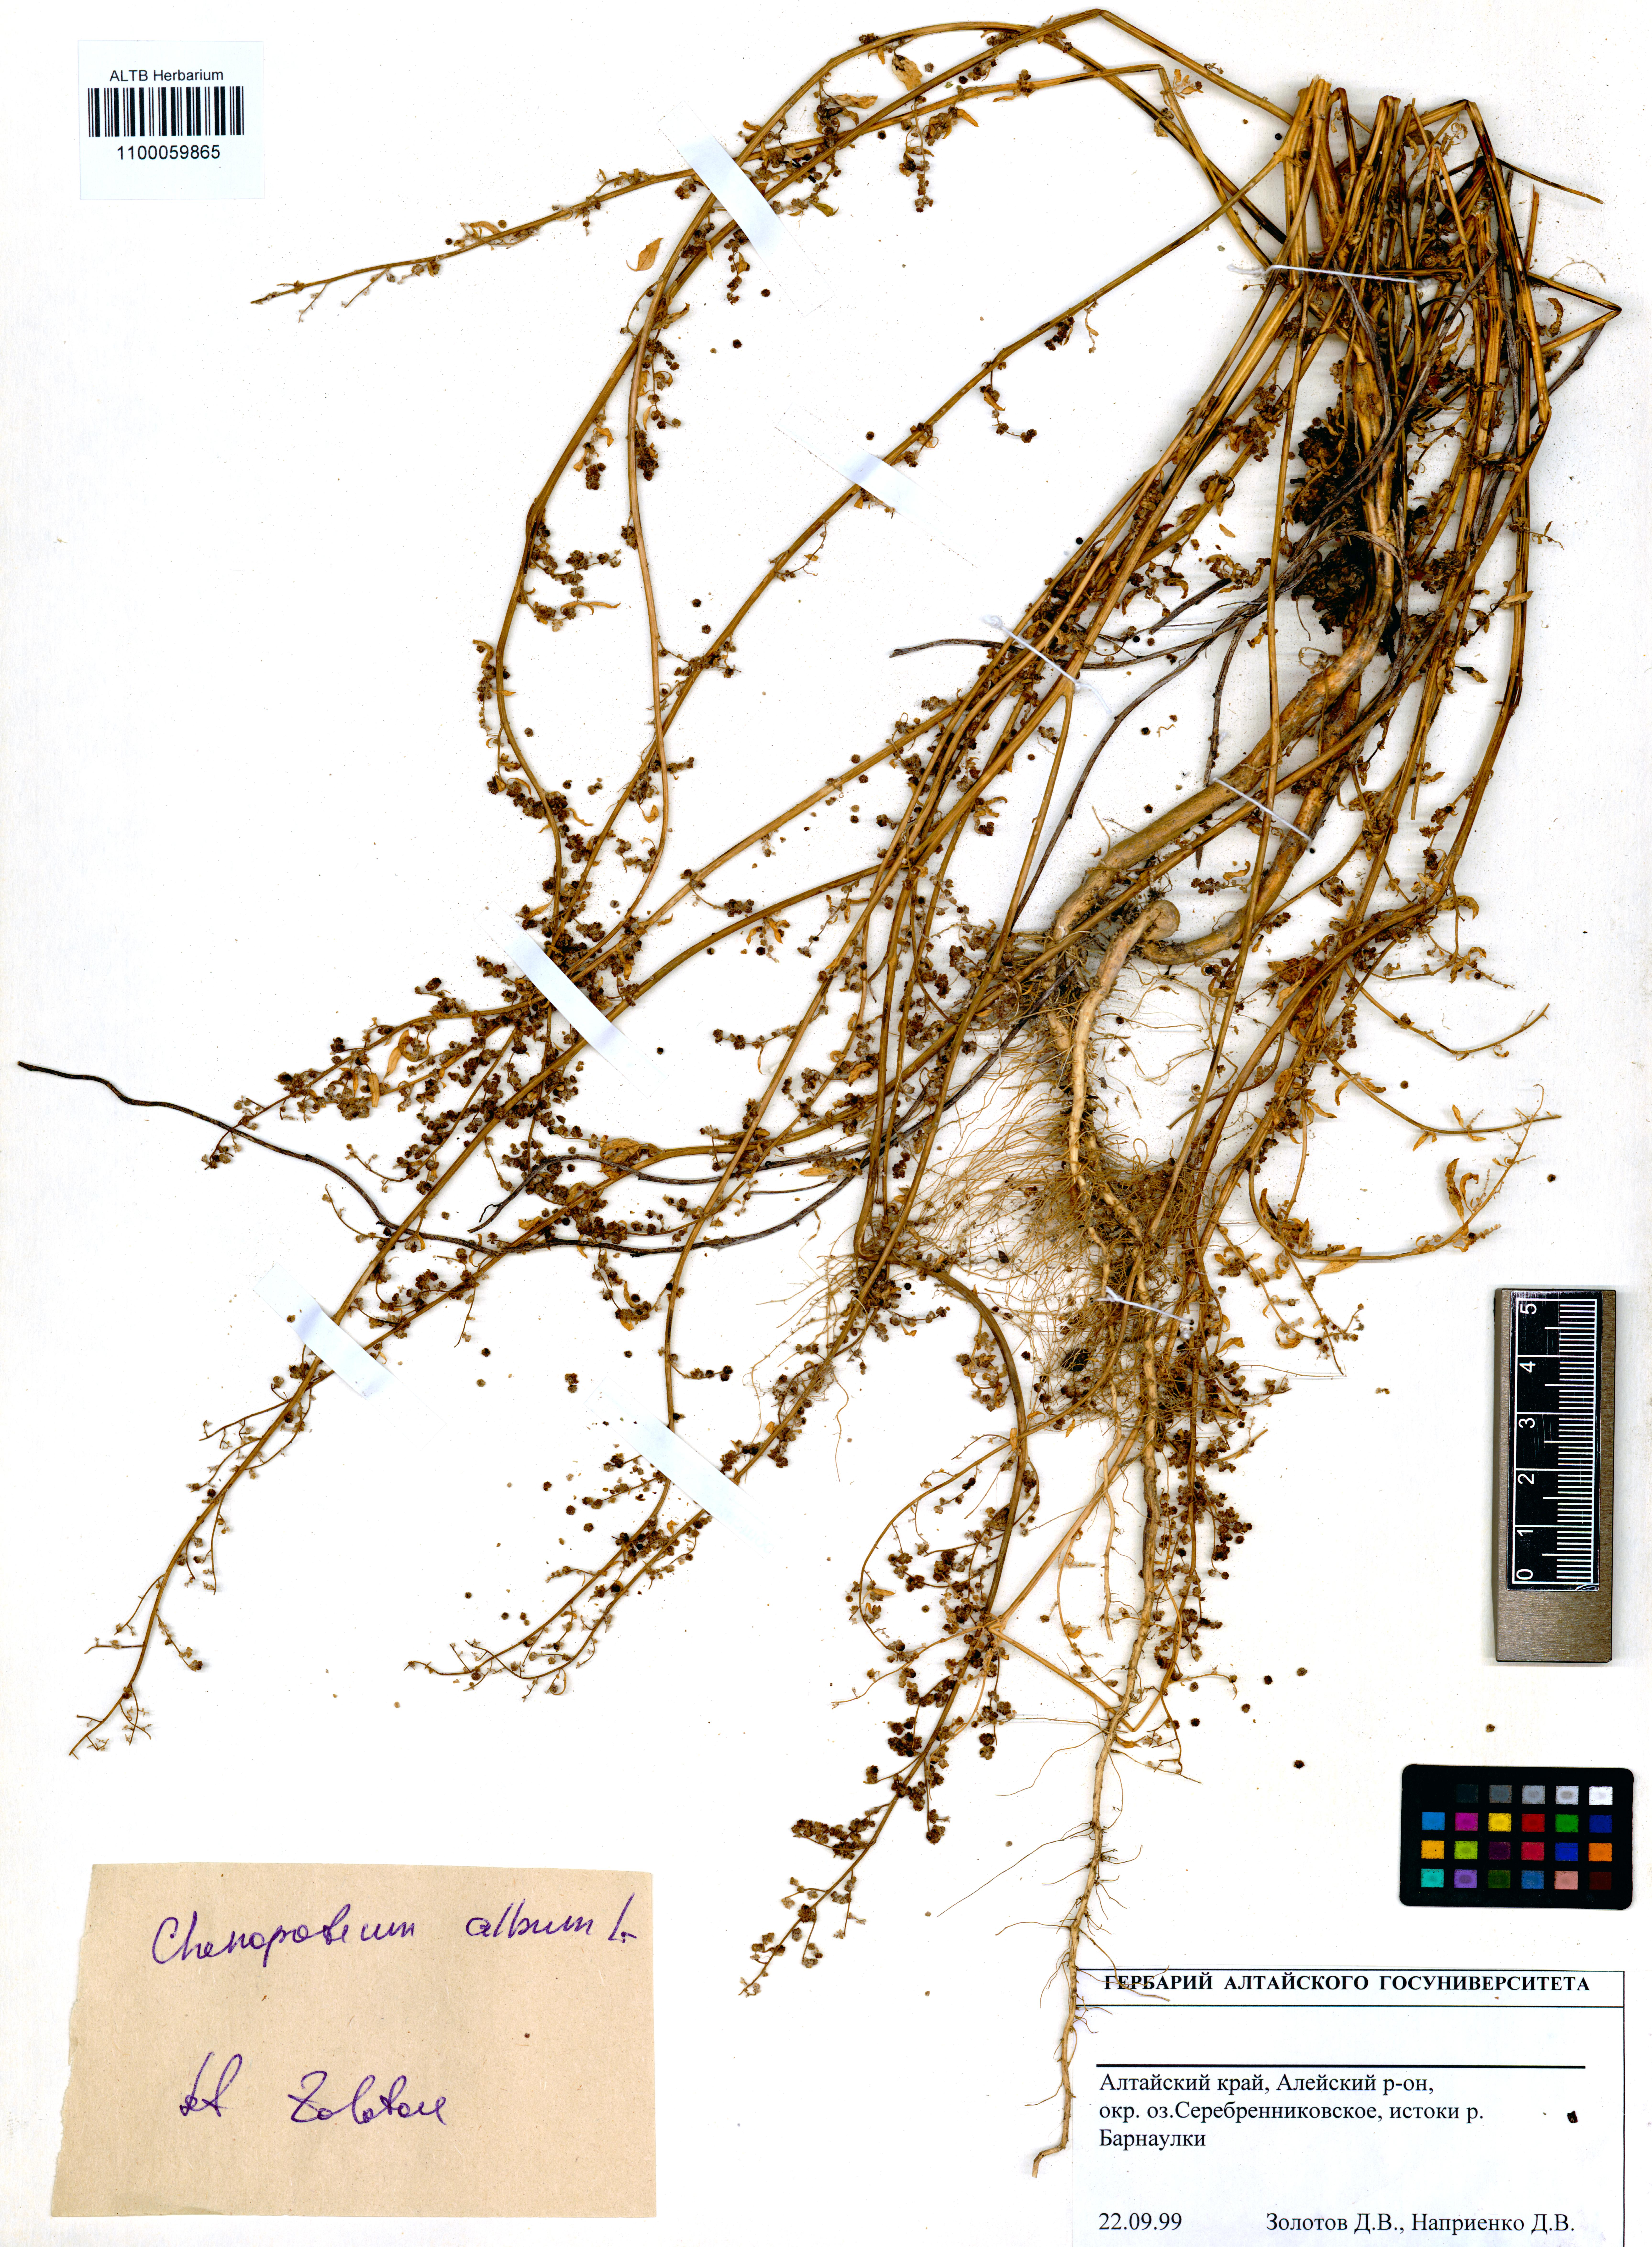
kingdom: Plantae
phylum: Tracheophyta
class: Magnoliopsida
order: Caryophyllales
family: Amaranthaceae
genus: Chenopodium
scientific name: Chenopodium album
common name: Fat-hen
